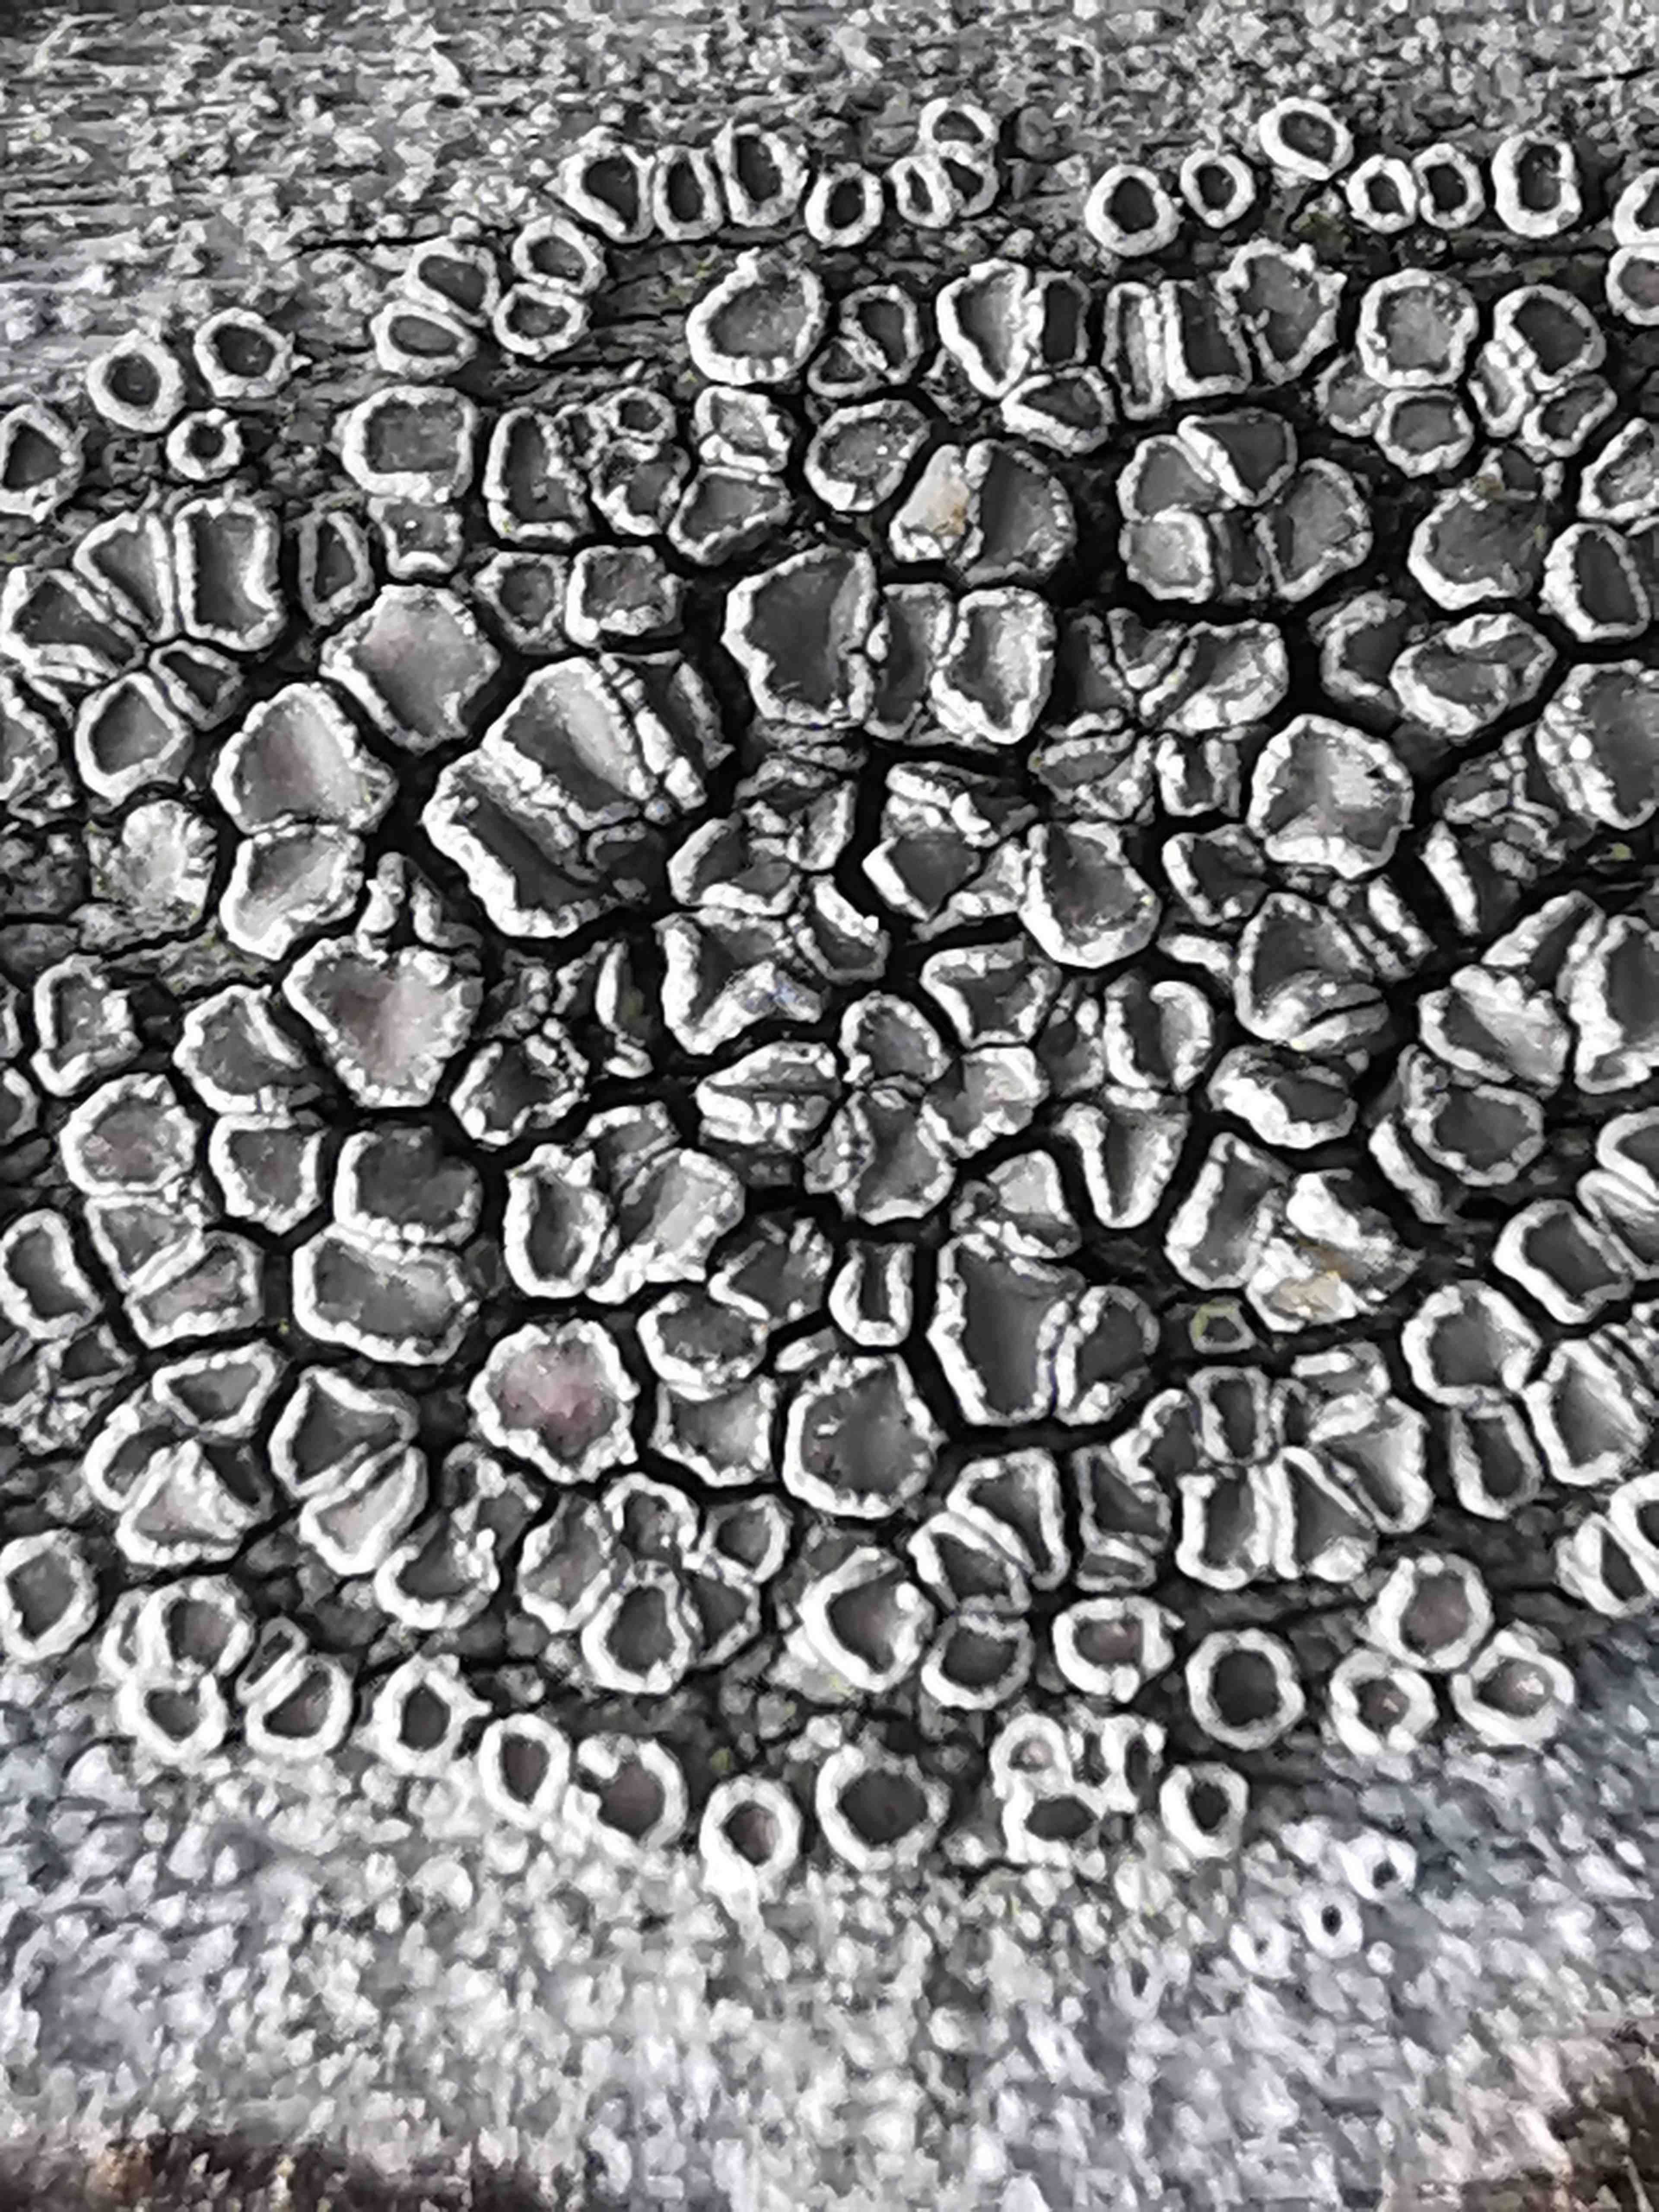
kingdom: Fungi
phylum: Ascomycota
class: Lecanoromycetes
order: Lecanorales
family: Lecanoraceae
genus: Lecanora
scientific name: Lecanora
